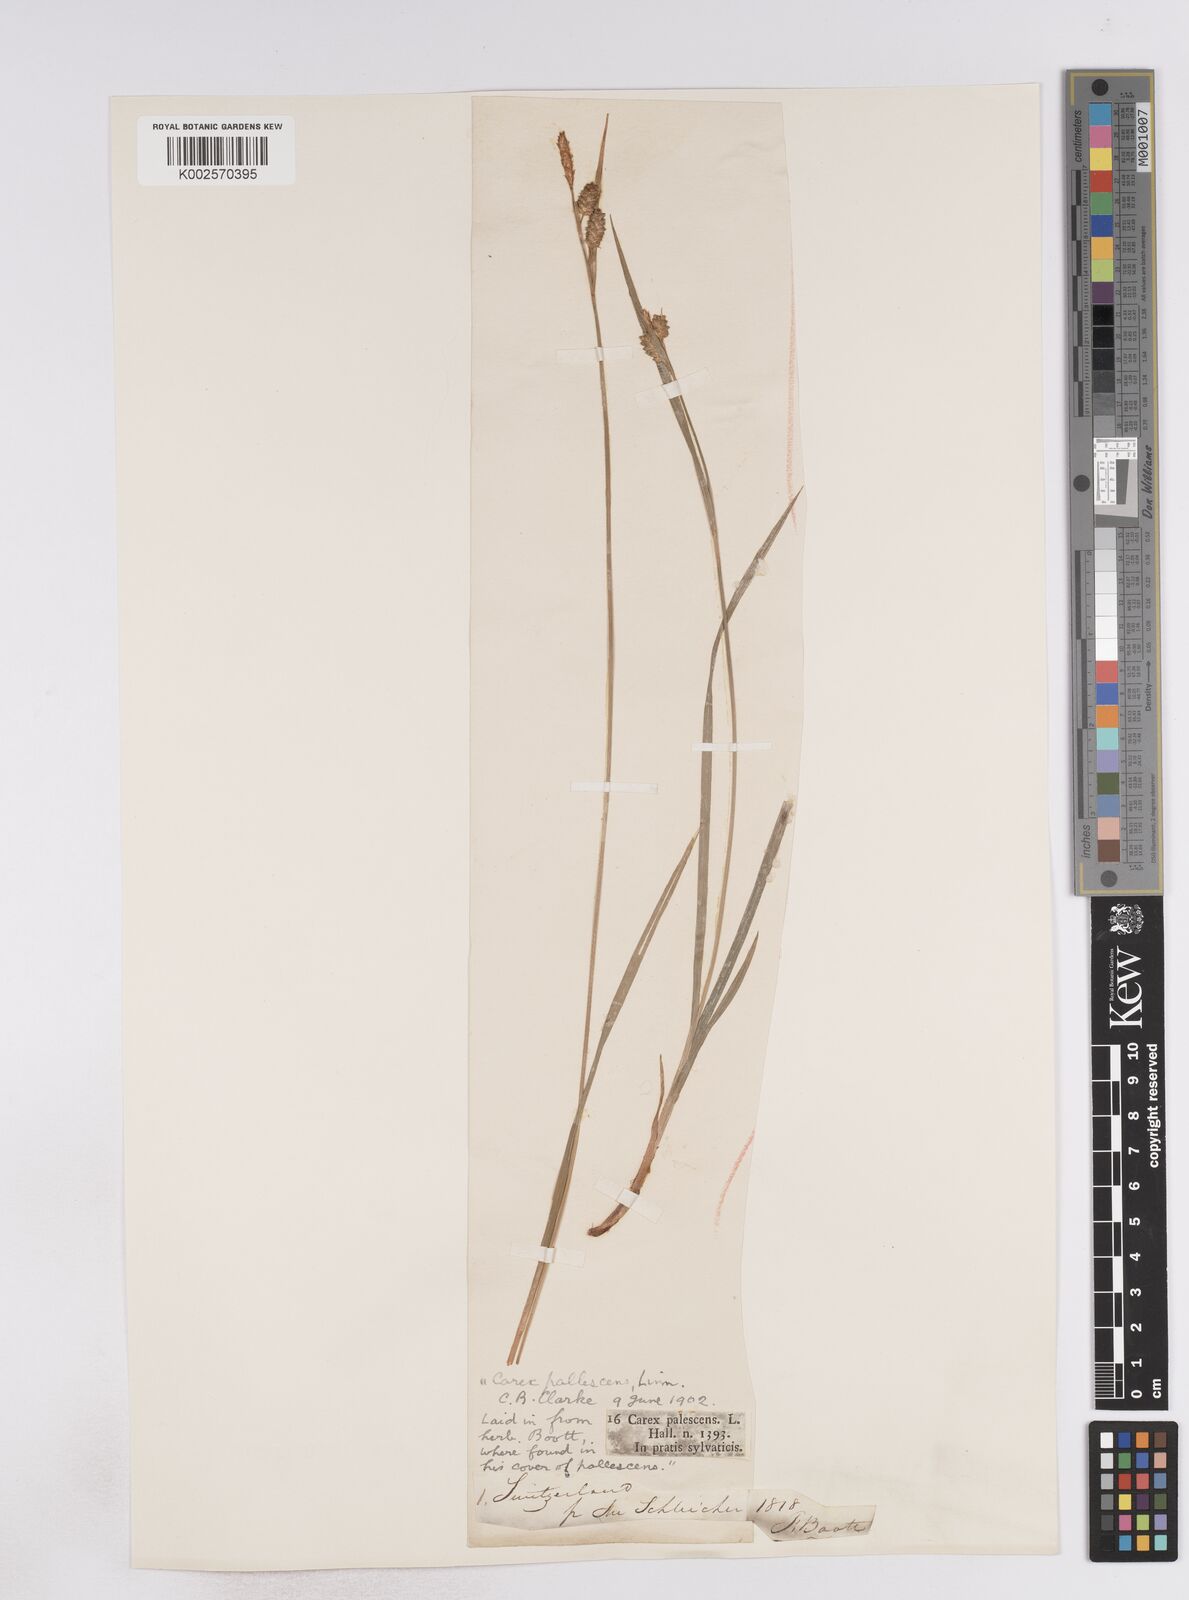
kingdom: Plantae
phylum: Tracheophyta
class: Liliopsida
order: Poales
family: Cyperaceae
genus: Carex
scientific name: Carex pallescens
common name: Pale sedge
